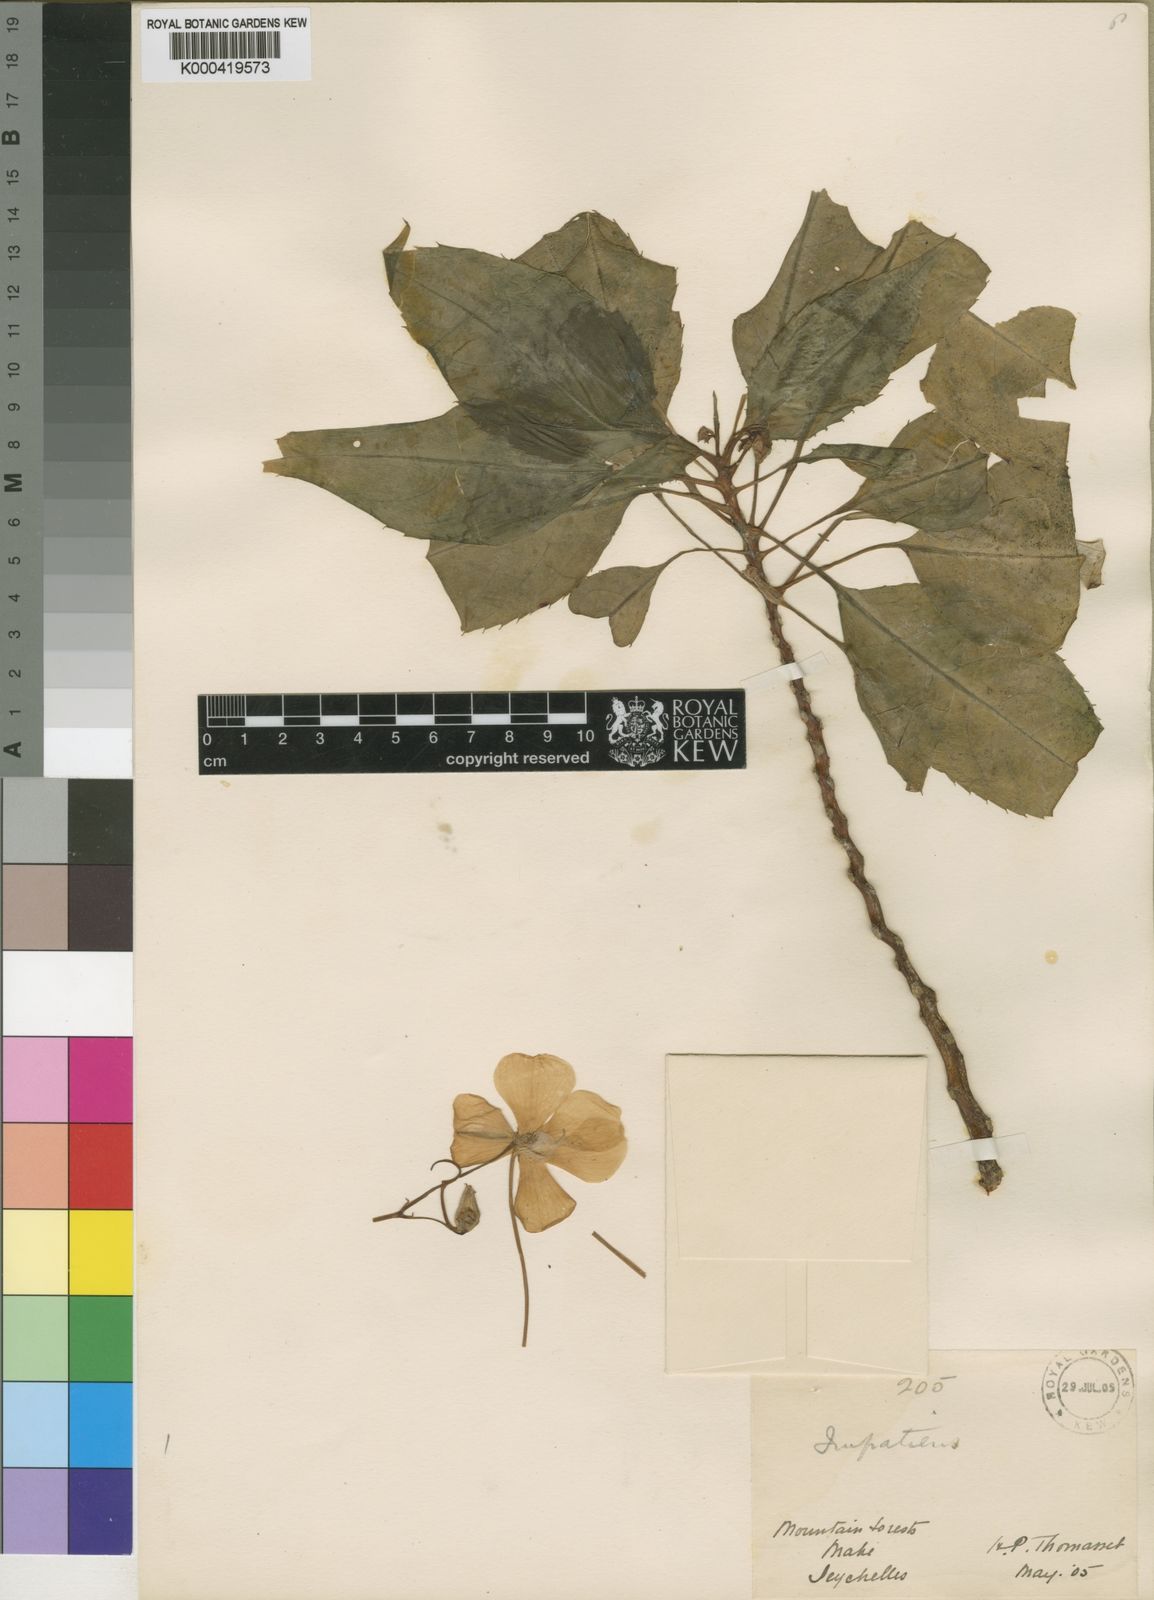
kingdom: Plantae
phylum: Tracheophyta
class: Magnoliopsida
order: Ericales
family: Balsaminaceae
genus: Impatiens
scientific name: Impatiens gordonii
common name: Seychelles bizzie lizzie
